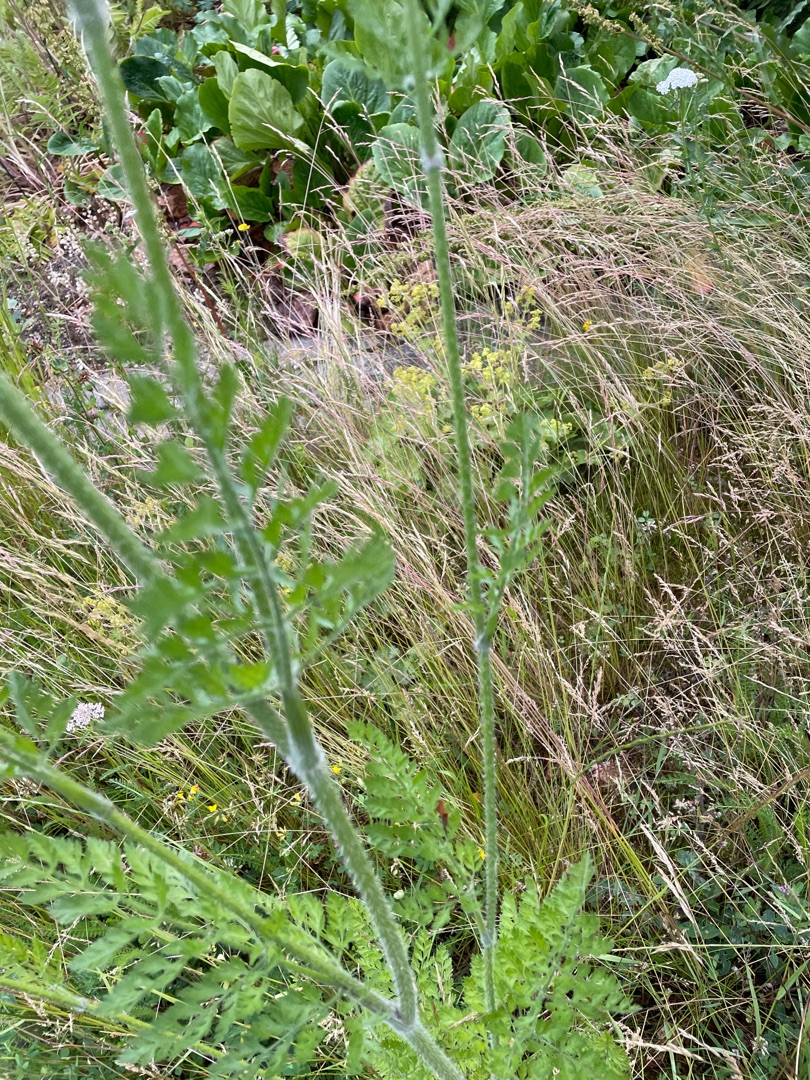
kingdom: Plantae
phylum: Tracheophyta
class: Magnoliopsida
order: Apiales
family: Apiaceae
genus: Daucus
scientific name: Daucus carota
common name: Gulerod
